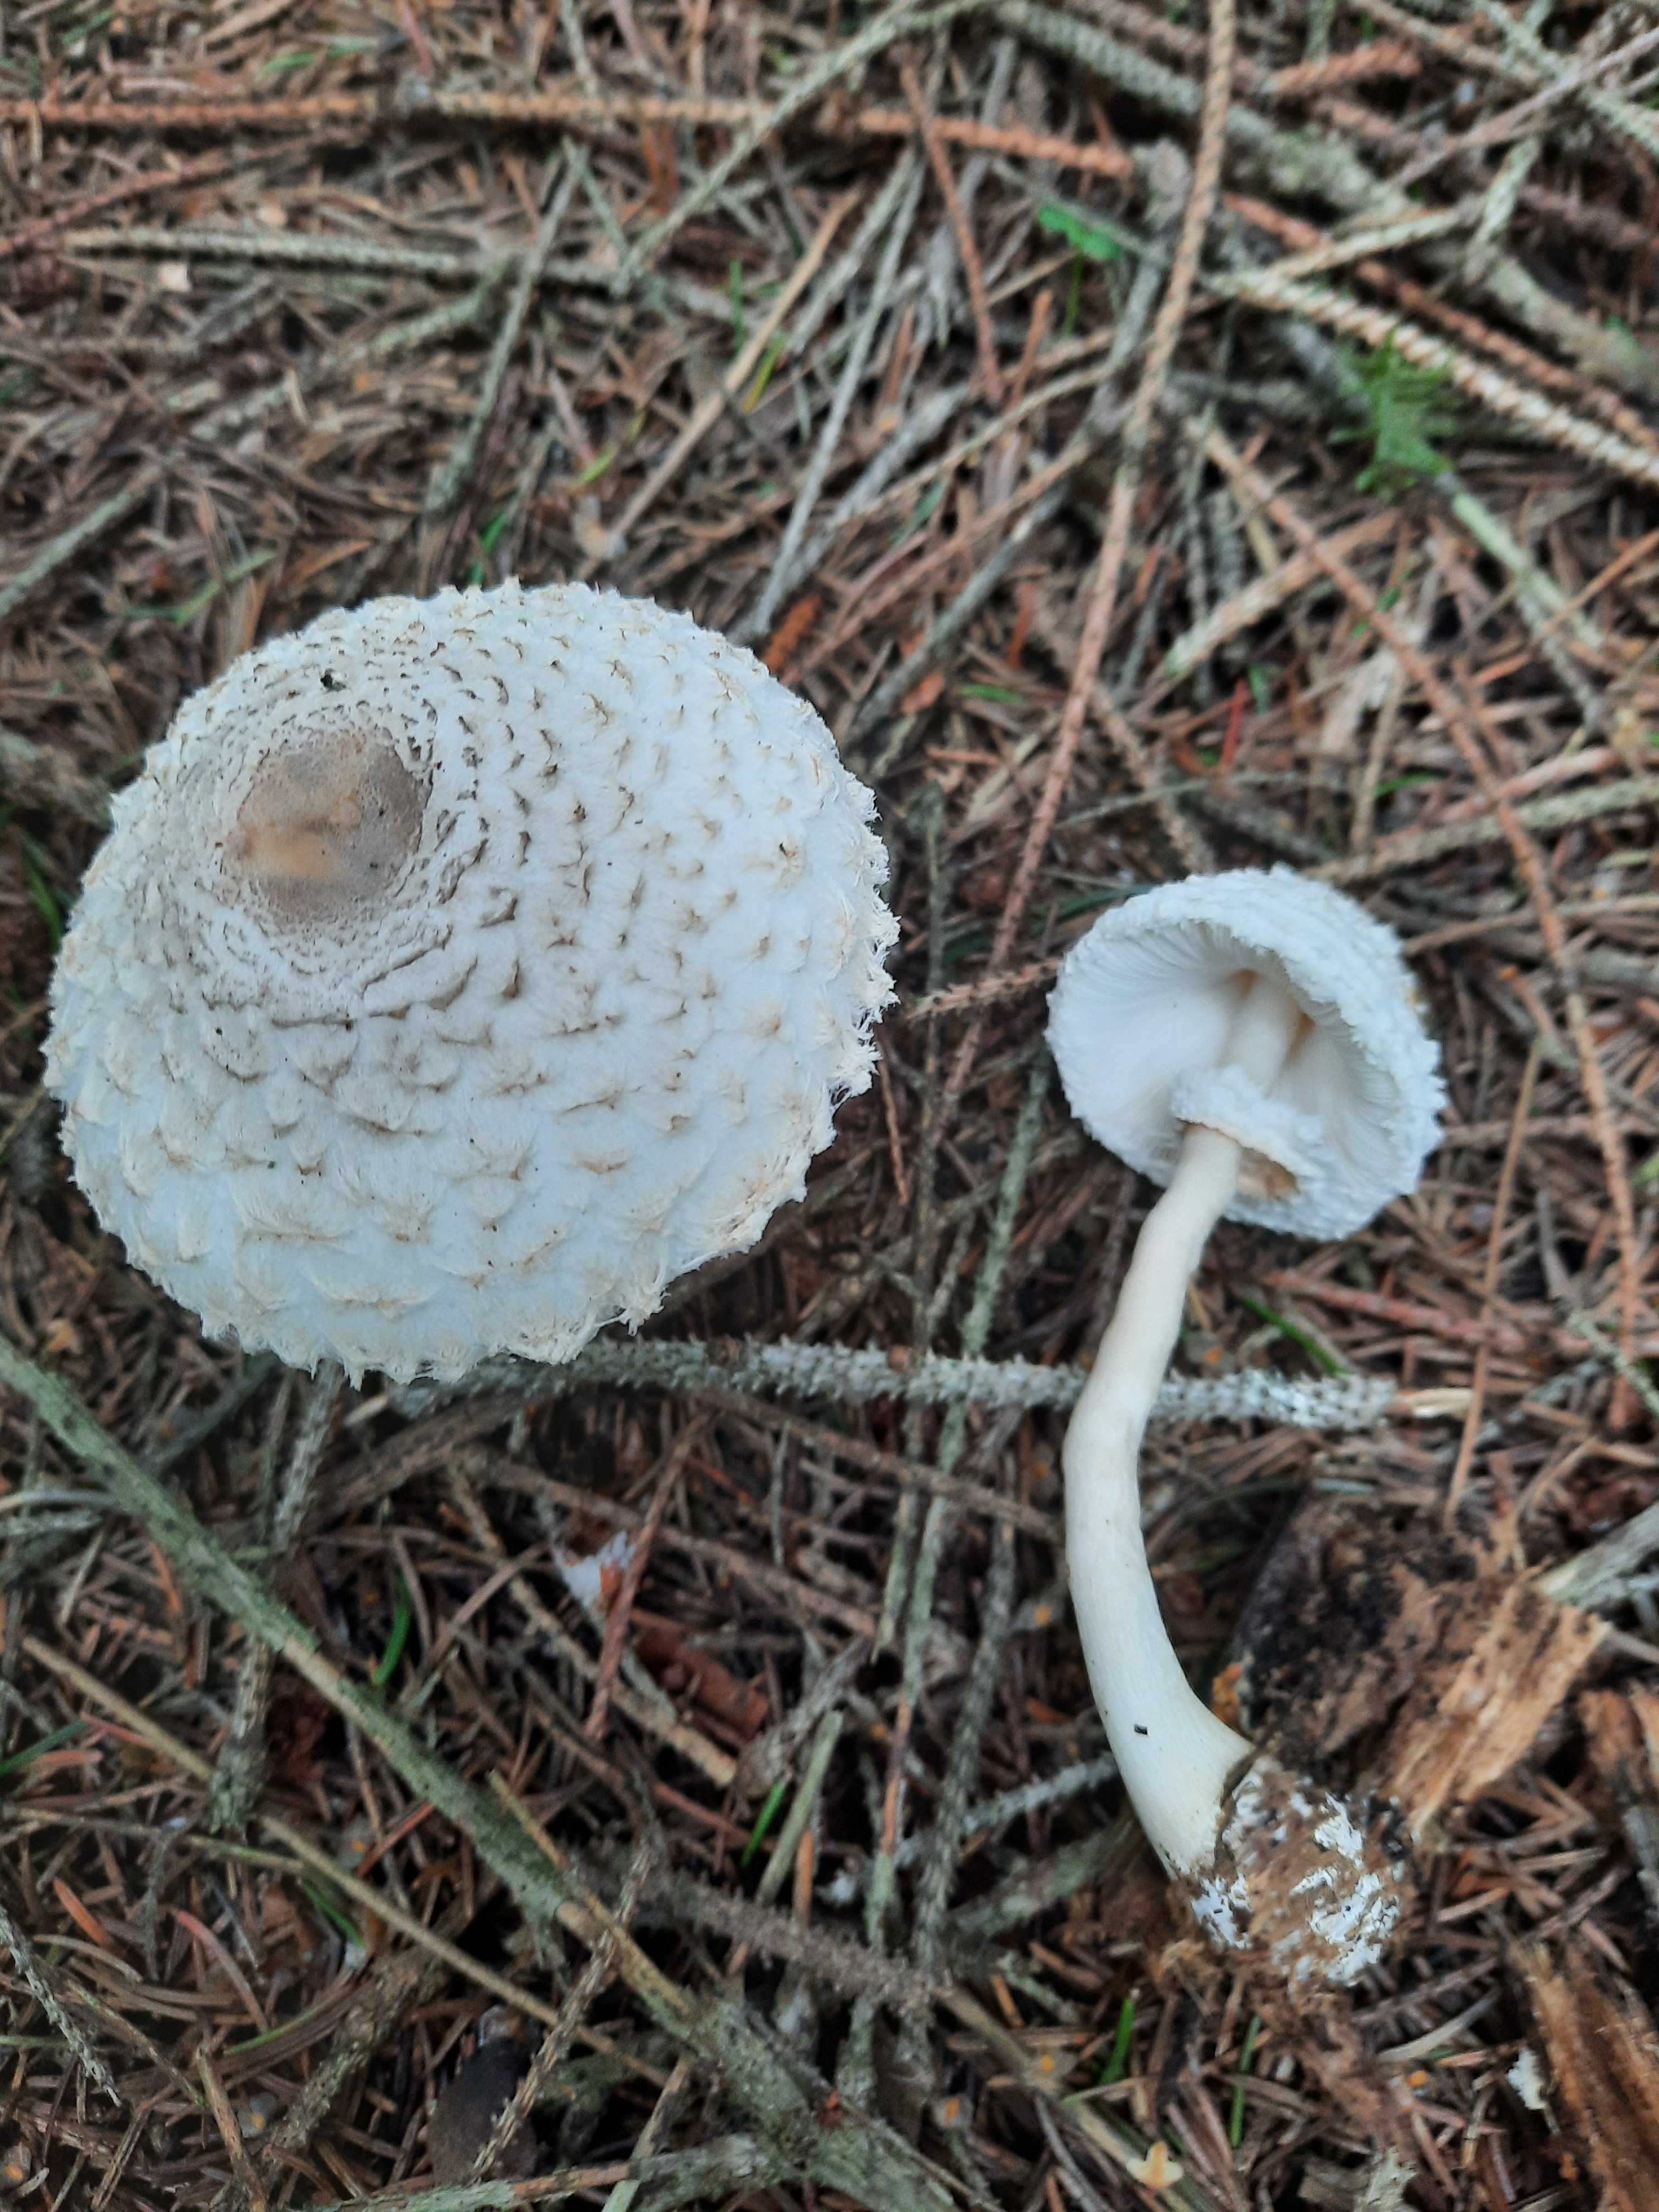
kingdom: Fungi
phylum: Basidiomycota
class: Agaricomycetes
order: Agaricales
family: Agaricaceae
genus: Leucoagaricus
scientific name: Leucoagaricus nympharum
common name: gran-silkehat
